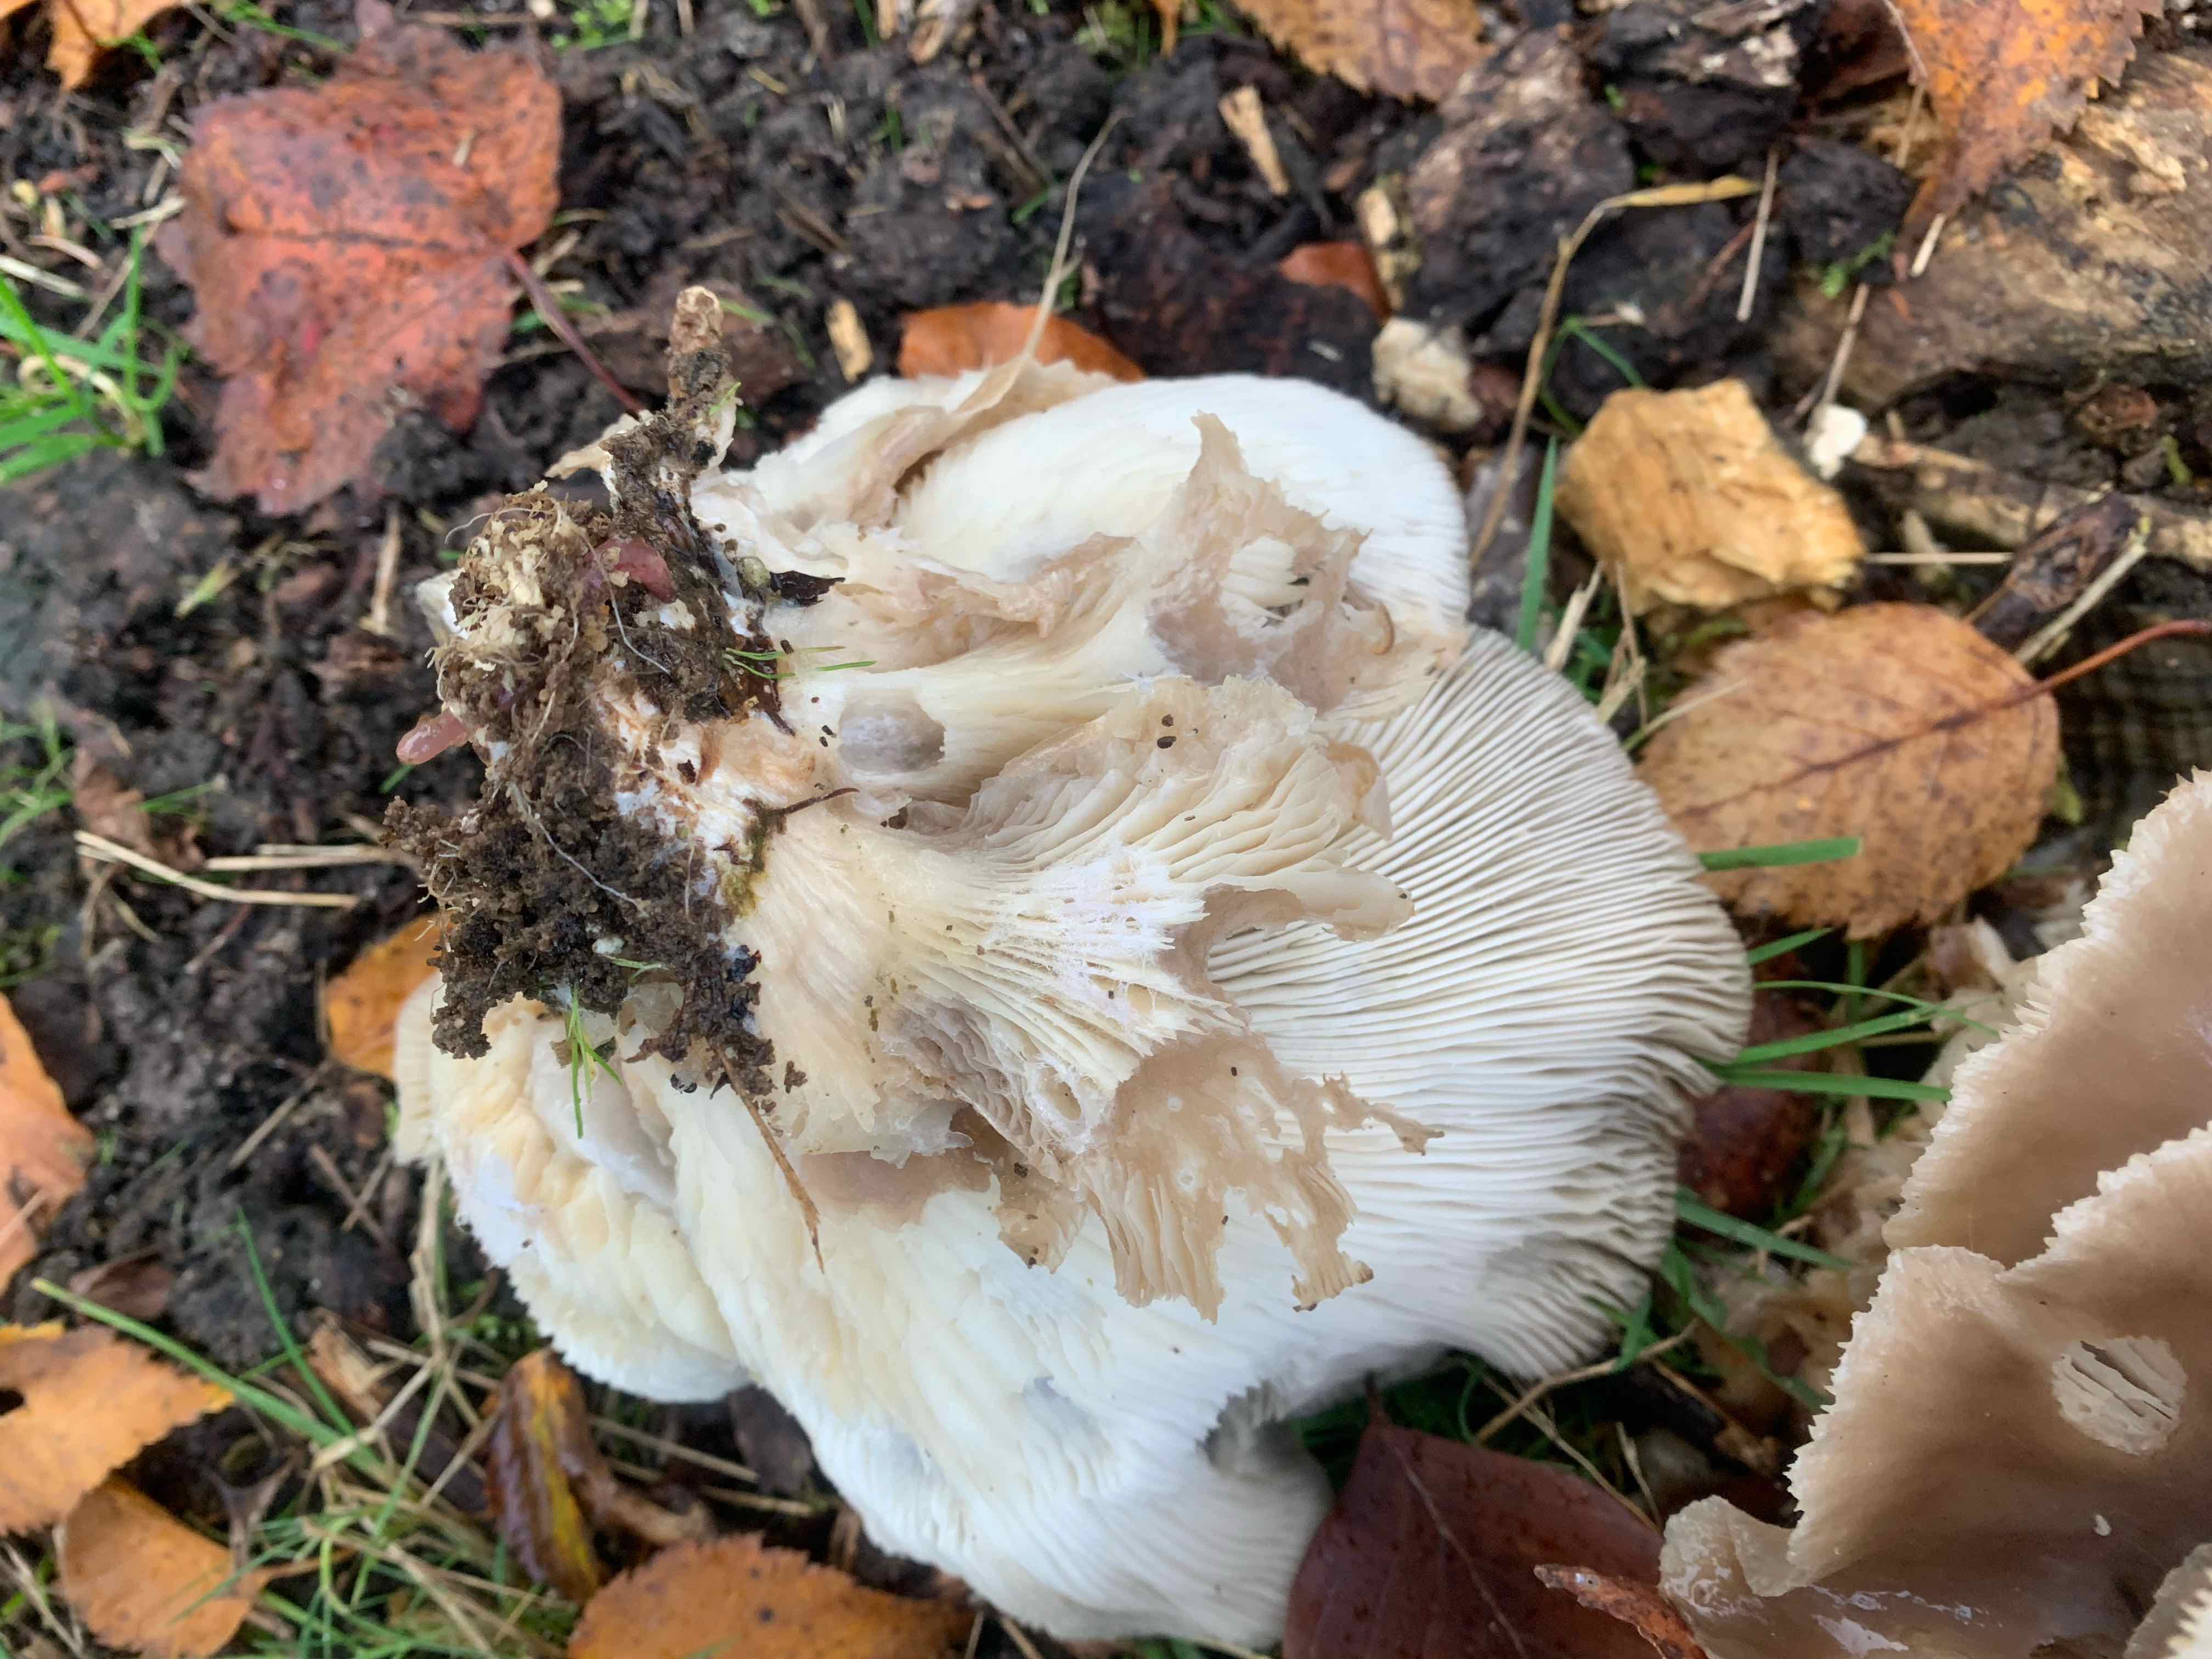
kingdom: Fungi
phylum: Basidiomycota
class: Agaricomycetes
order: Agaricales
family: Pleurotaceae
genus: Pleurotus
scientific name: Pleurotus ostreatus
